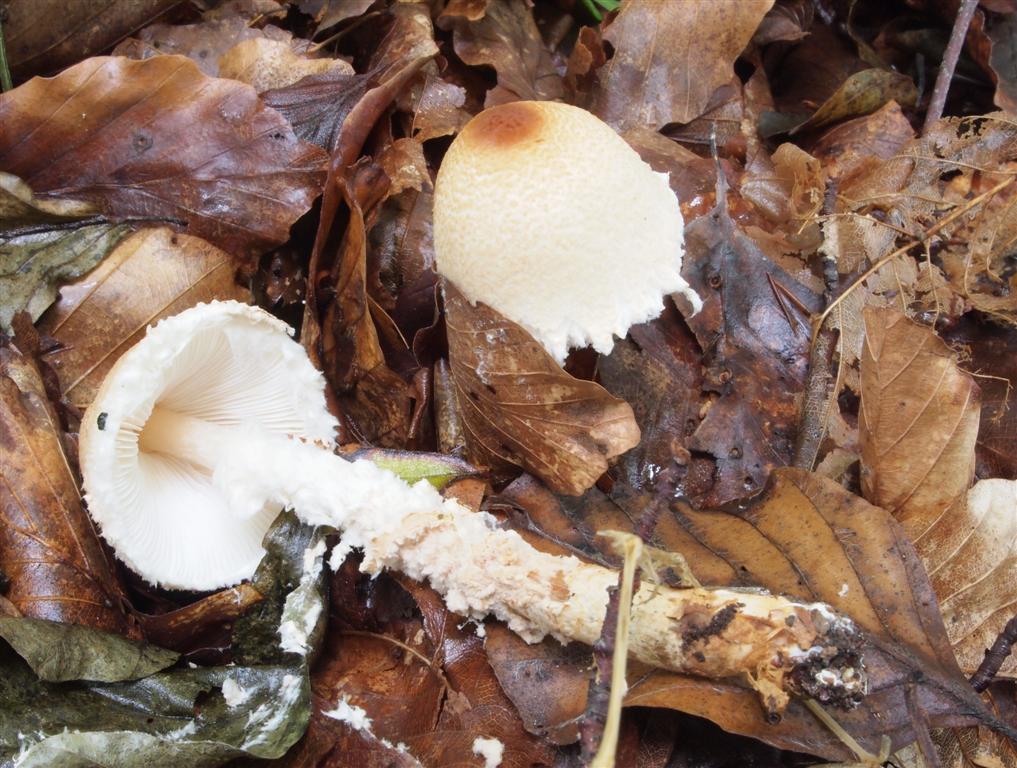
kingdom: Fungi
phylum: Basidiomycota
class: Agaricomycetes
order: Agaricales
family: Agaricaceae
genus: Lepiota
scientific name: Lepiota magnispora
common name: gulfnugget parasolhat
